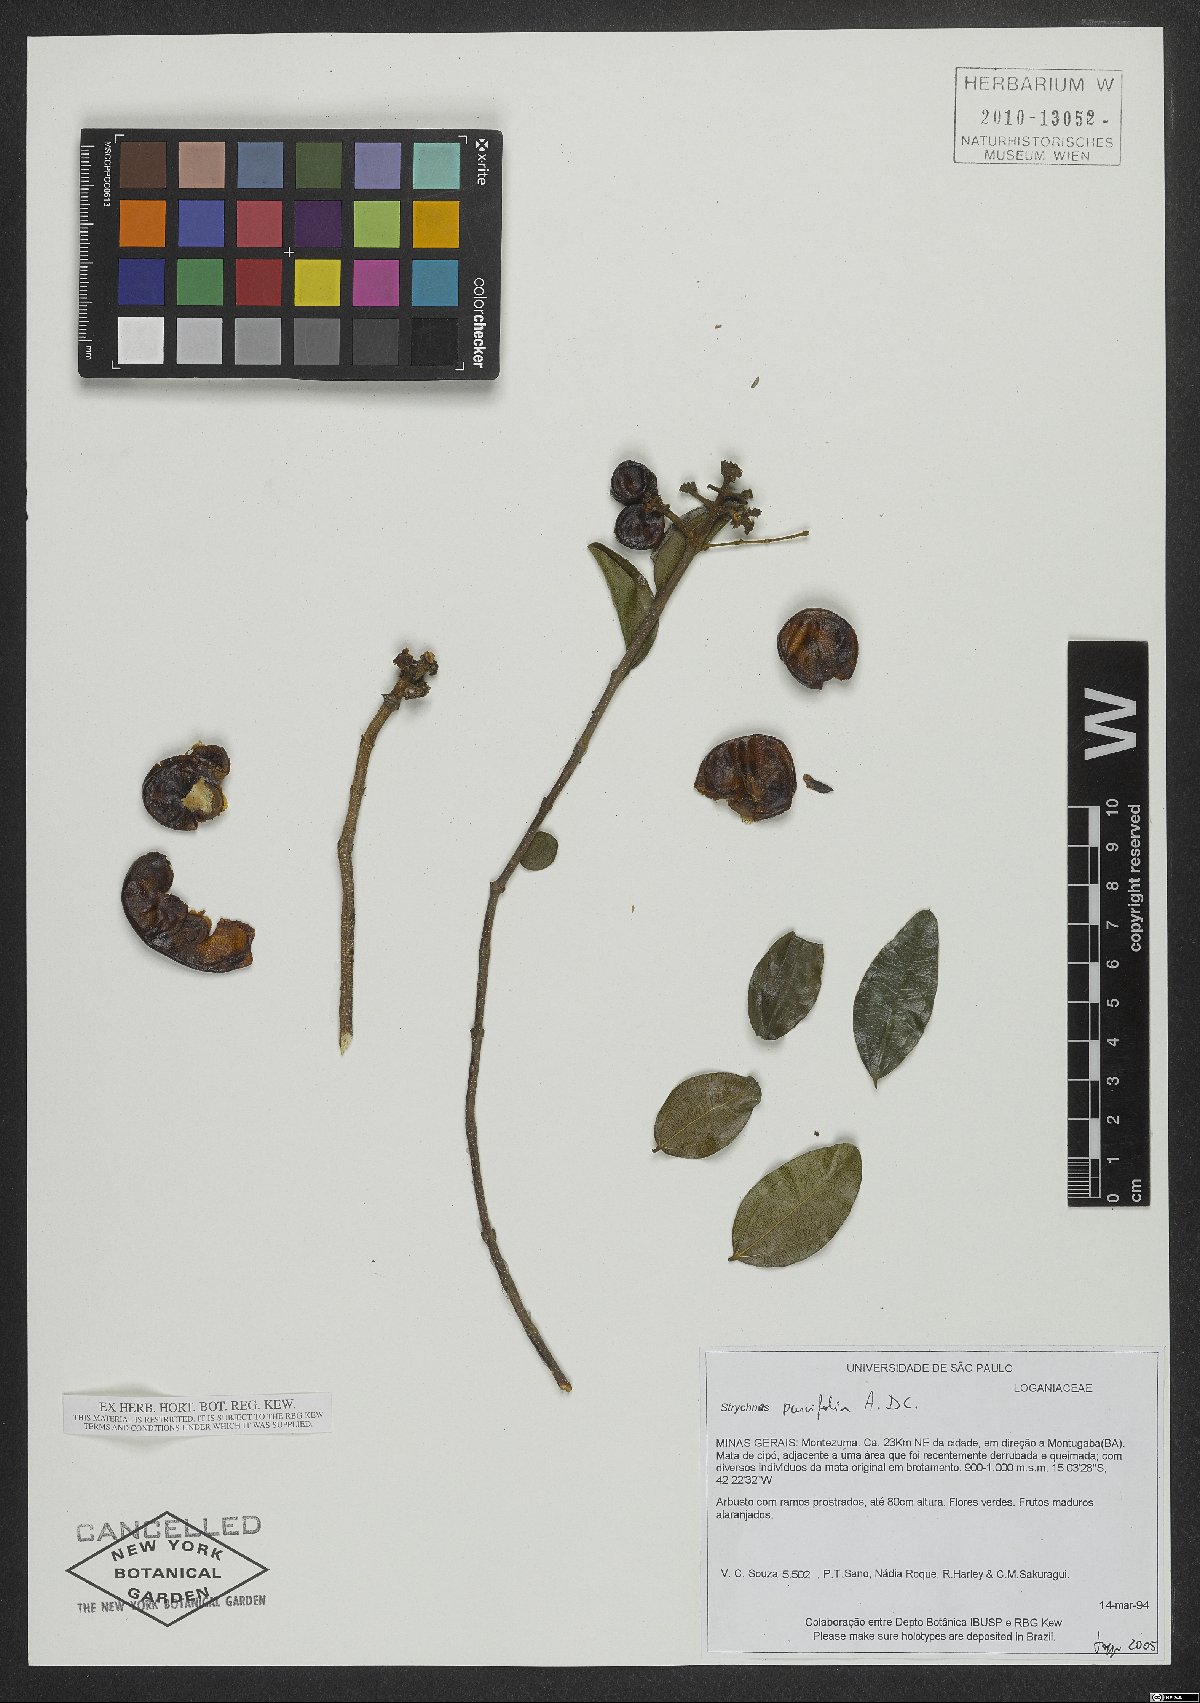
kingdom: Plantae
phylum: Tracheophyta
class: Magnoliopsida
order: Gentianales
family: Loganiaceae
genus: Strychnos
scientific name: Strychnos parviflora
